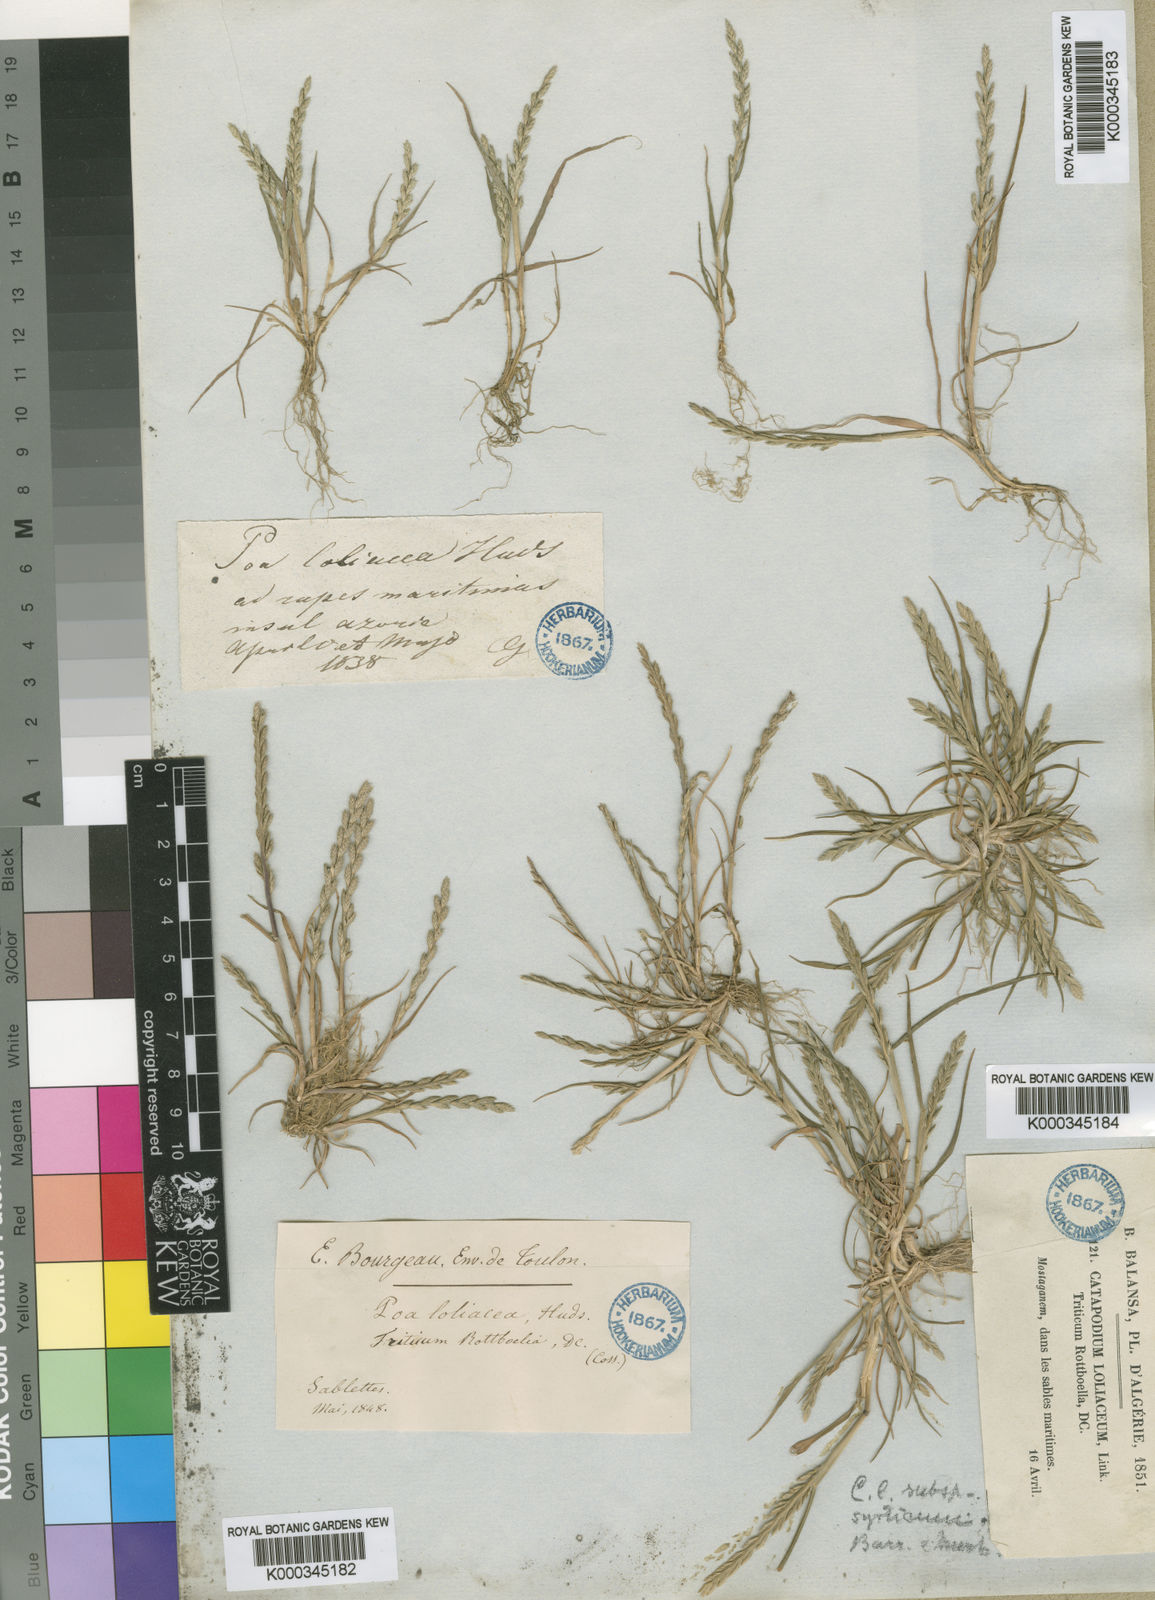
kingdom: Plantae
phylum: Tracheophyta
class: Liliopsida
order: Poales
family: Poaceae
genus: Catapodium
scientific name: Catapodium marinum
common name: Sea fern-grass
